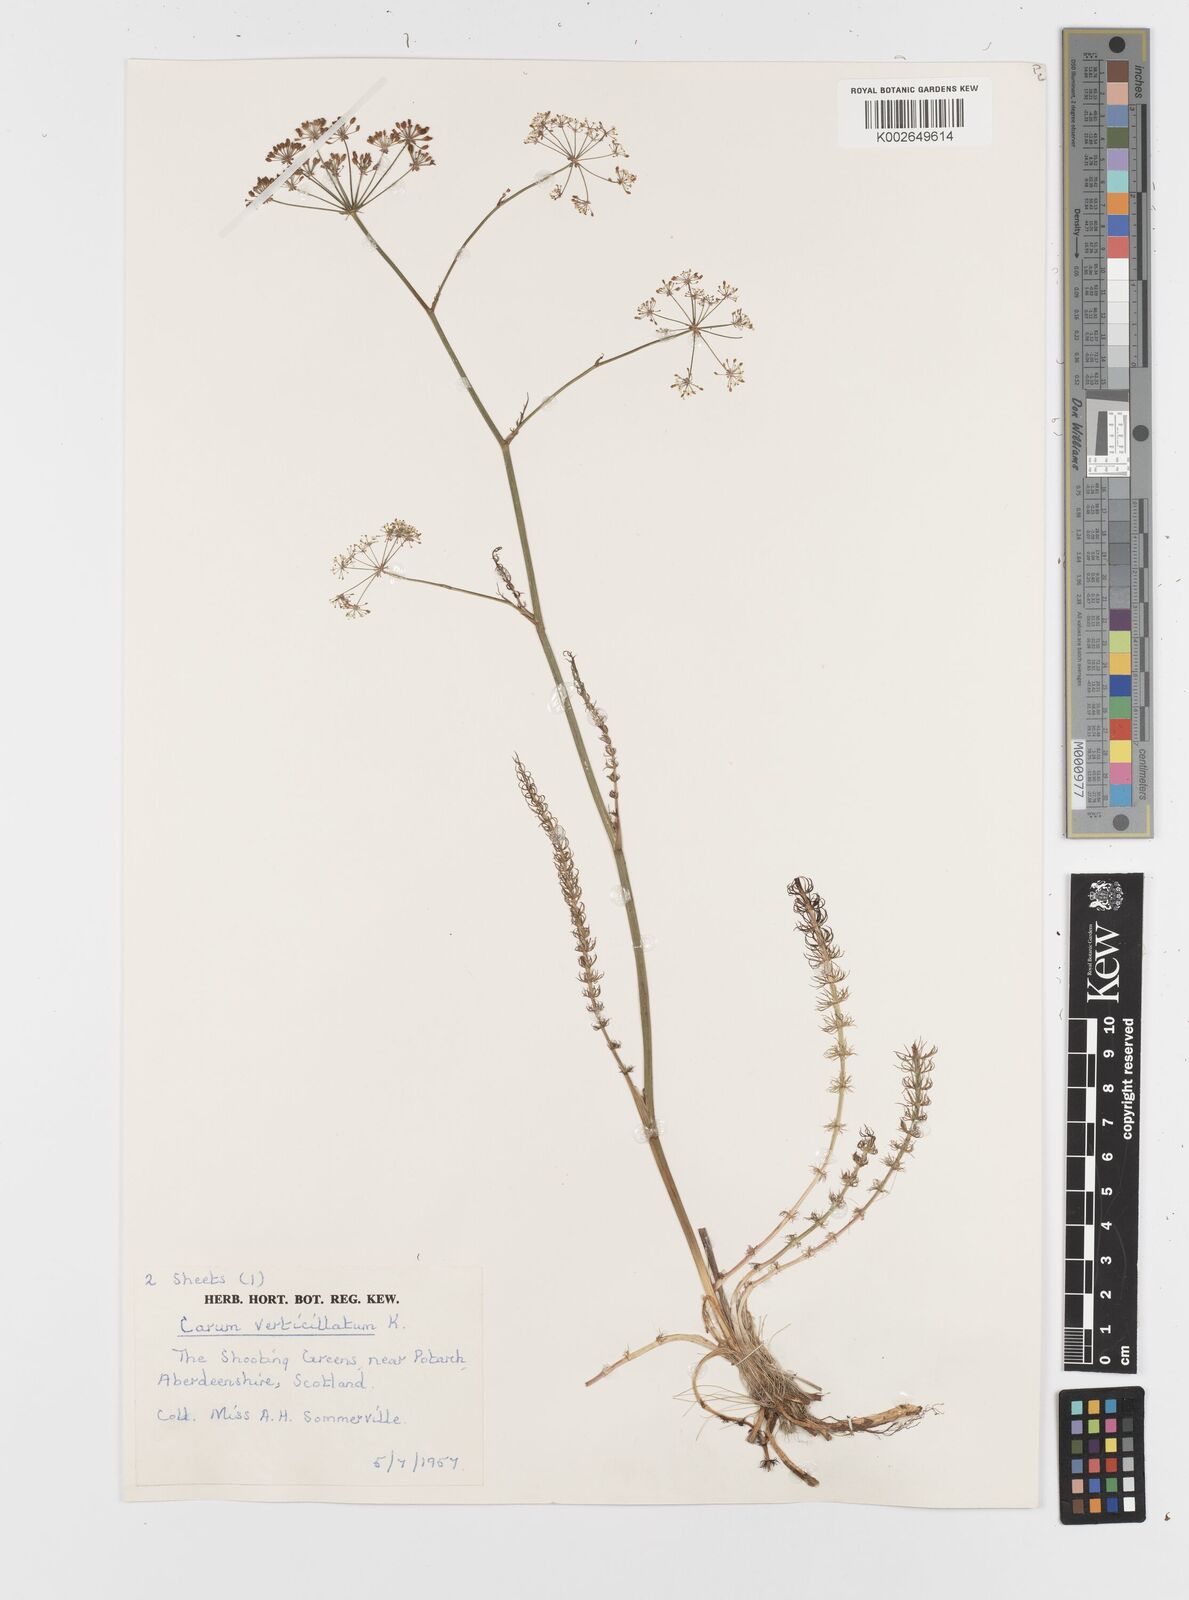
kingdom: Plantae
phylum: Tracheophyta
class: Magnoliopsida
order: Apiales
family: Apiaceae
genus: Trocdaris
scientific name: Trocdaris verticillatum
